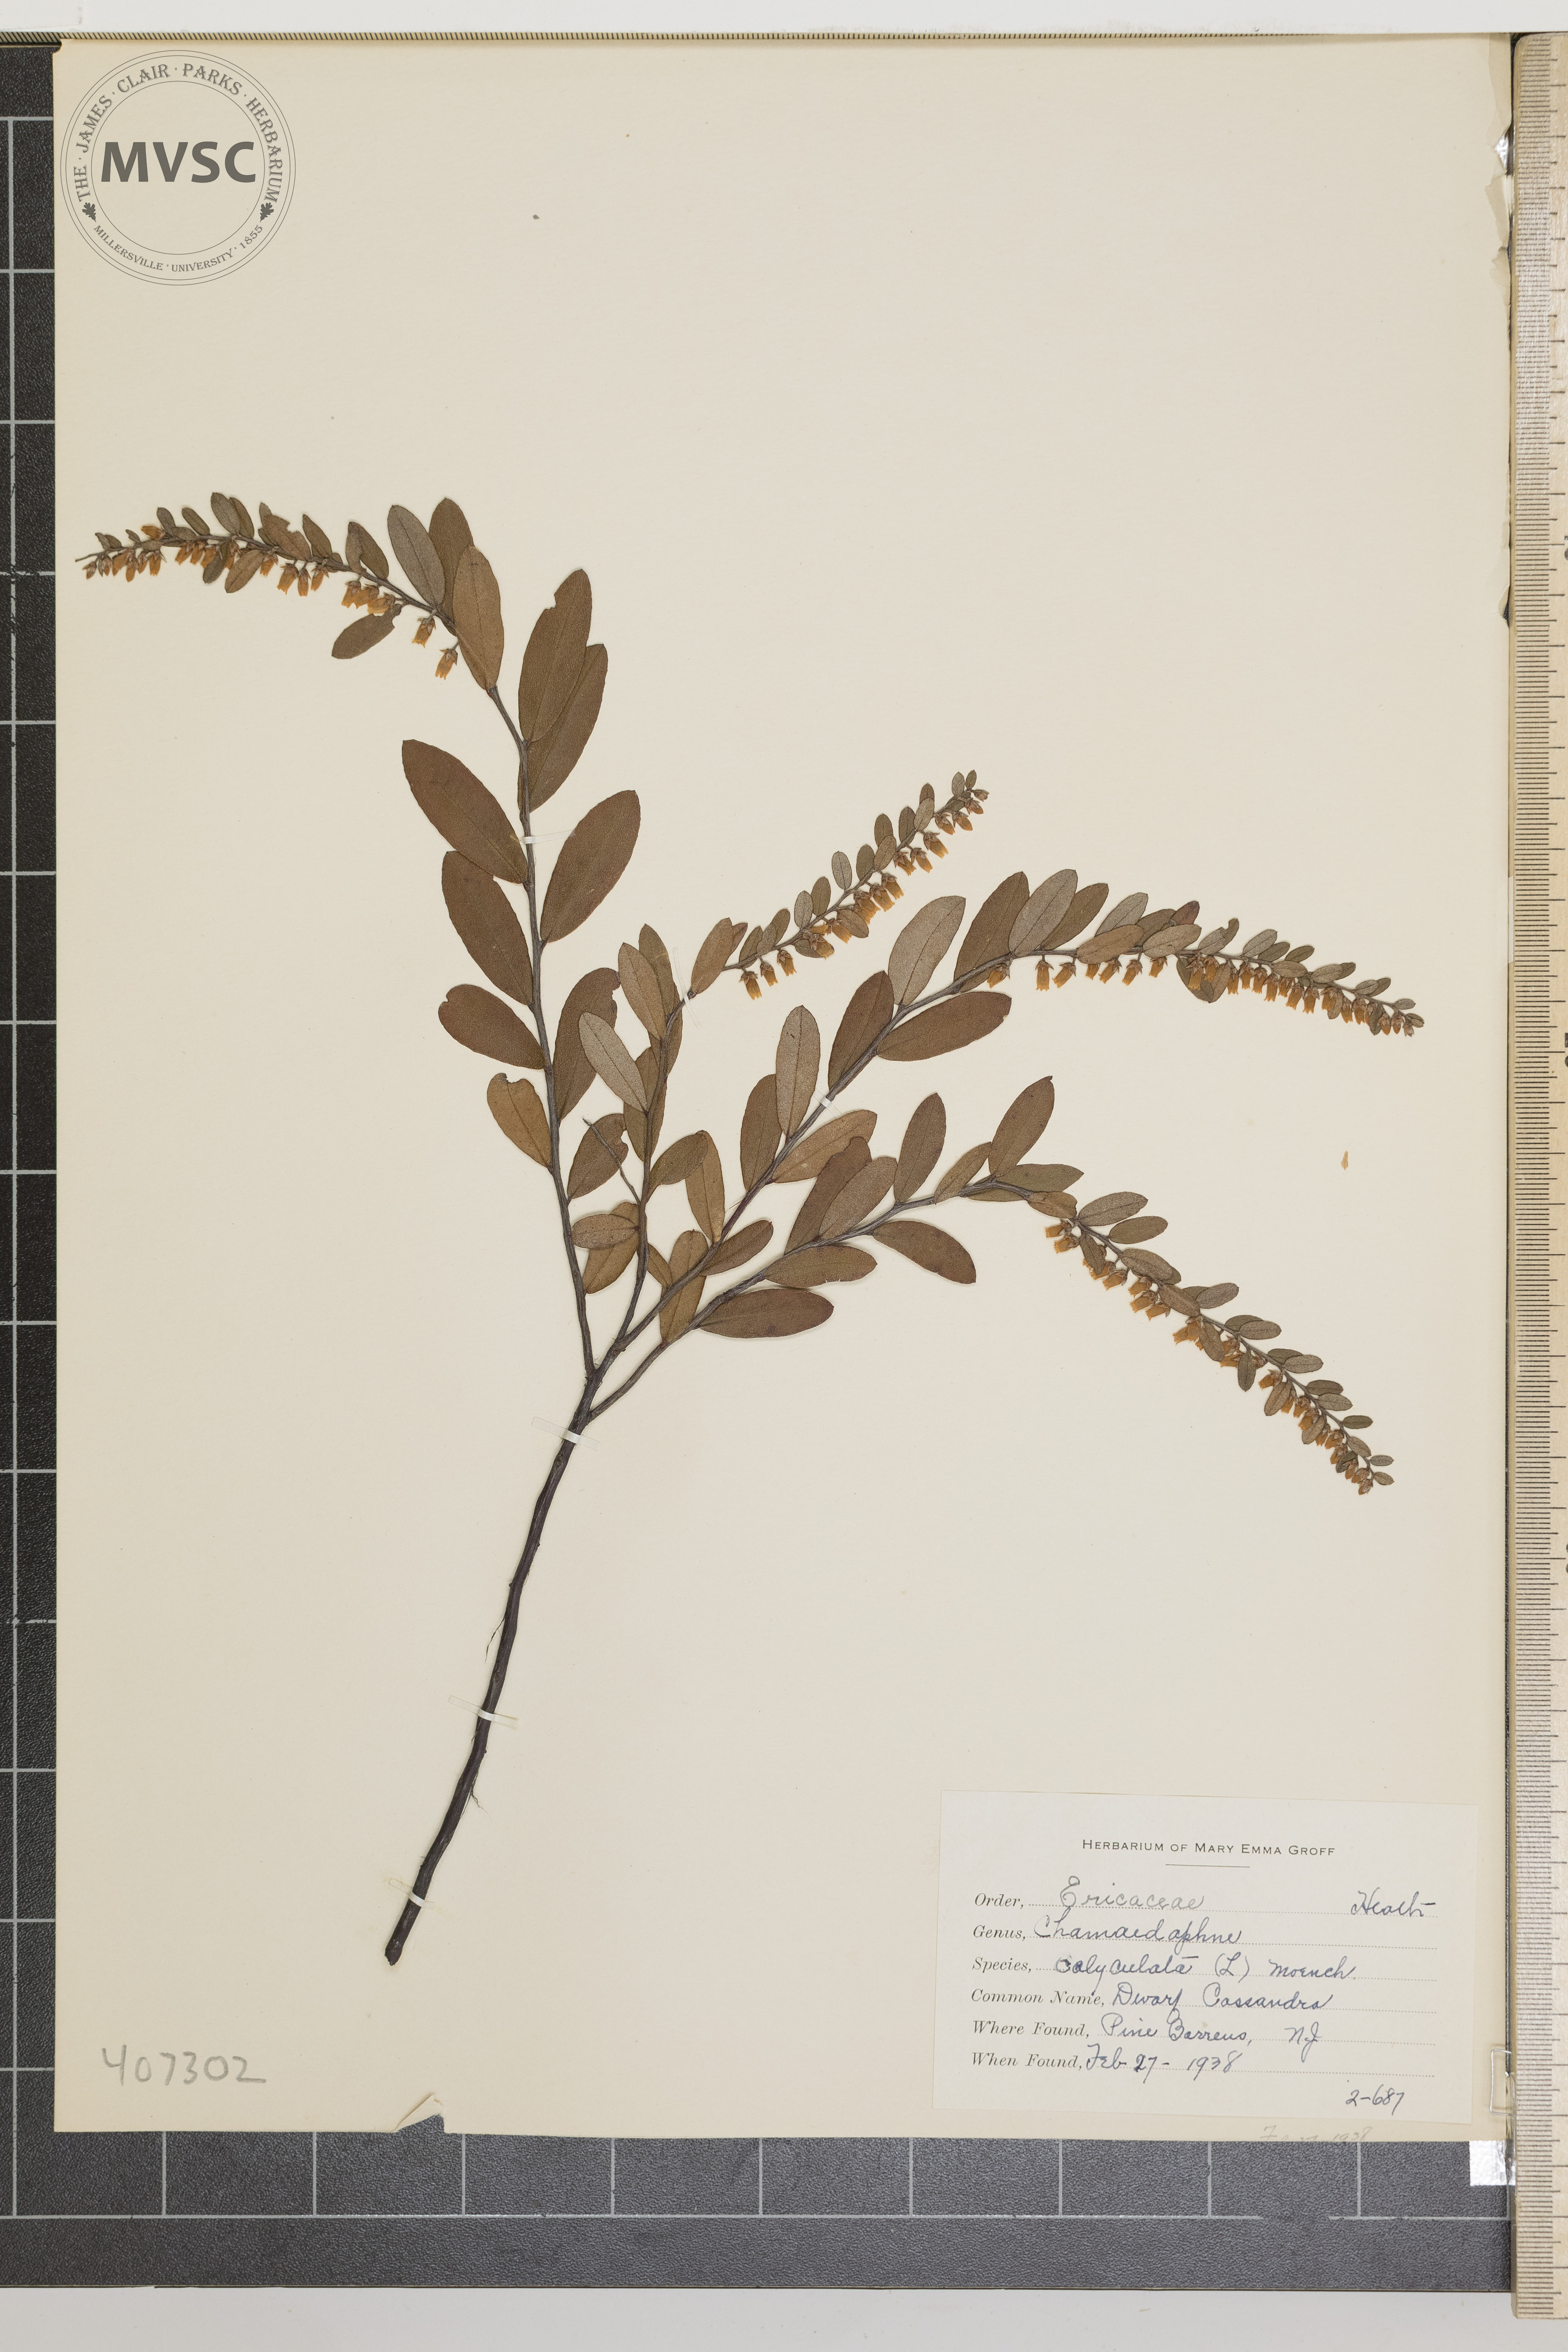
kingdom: Plantae
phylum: Tracheophyta
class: Magnoliopsida
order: Ericales
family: Ericaceae
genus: Chamaedaphne
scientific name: Chamaedaphne calyculata
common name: dwarf Cassandra
